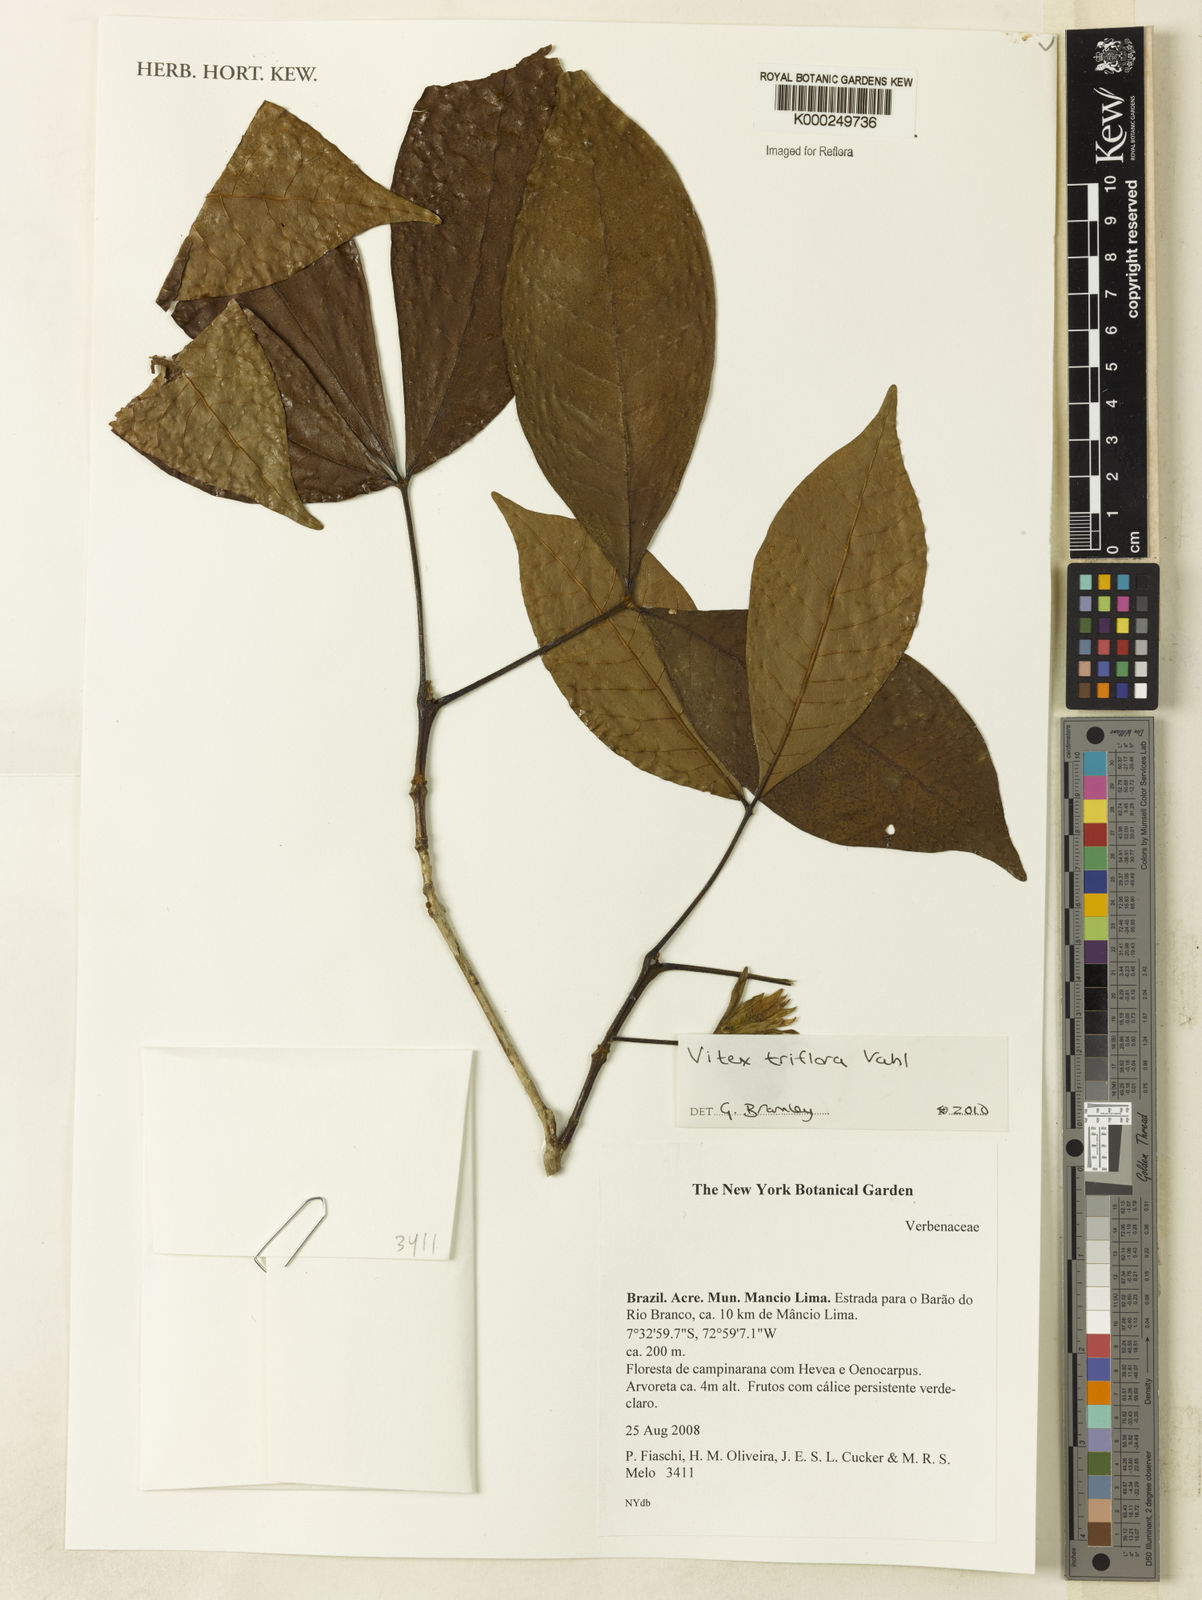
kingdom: Plantae
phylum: Tracheophyta
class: Magnoliopsida
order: Lamiales
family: Lamiaceae
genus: Vitex
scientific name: Vitex triflora
